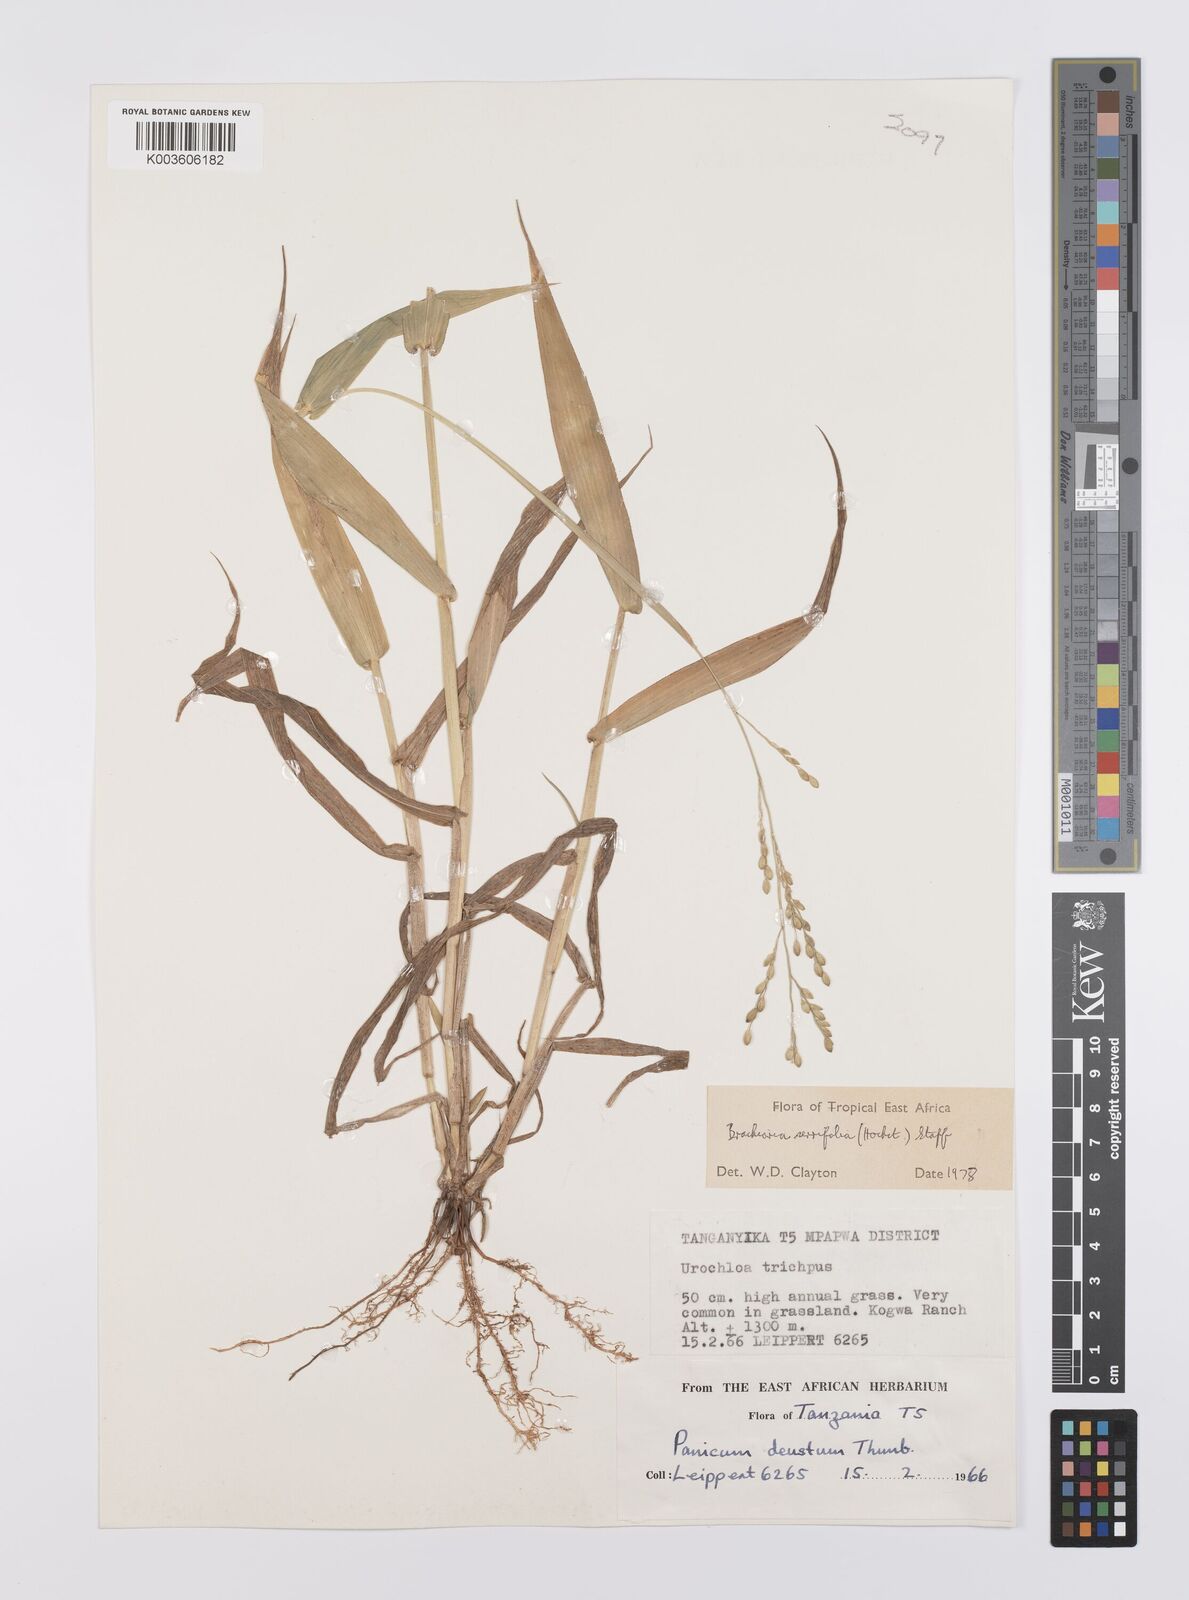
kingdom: Plantae
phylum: Tracheophyta
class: Liliopsida
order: Poales
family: Poaceae
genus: Urochloa
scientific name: Urochloa serrifolia
